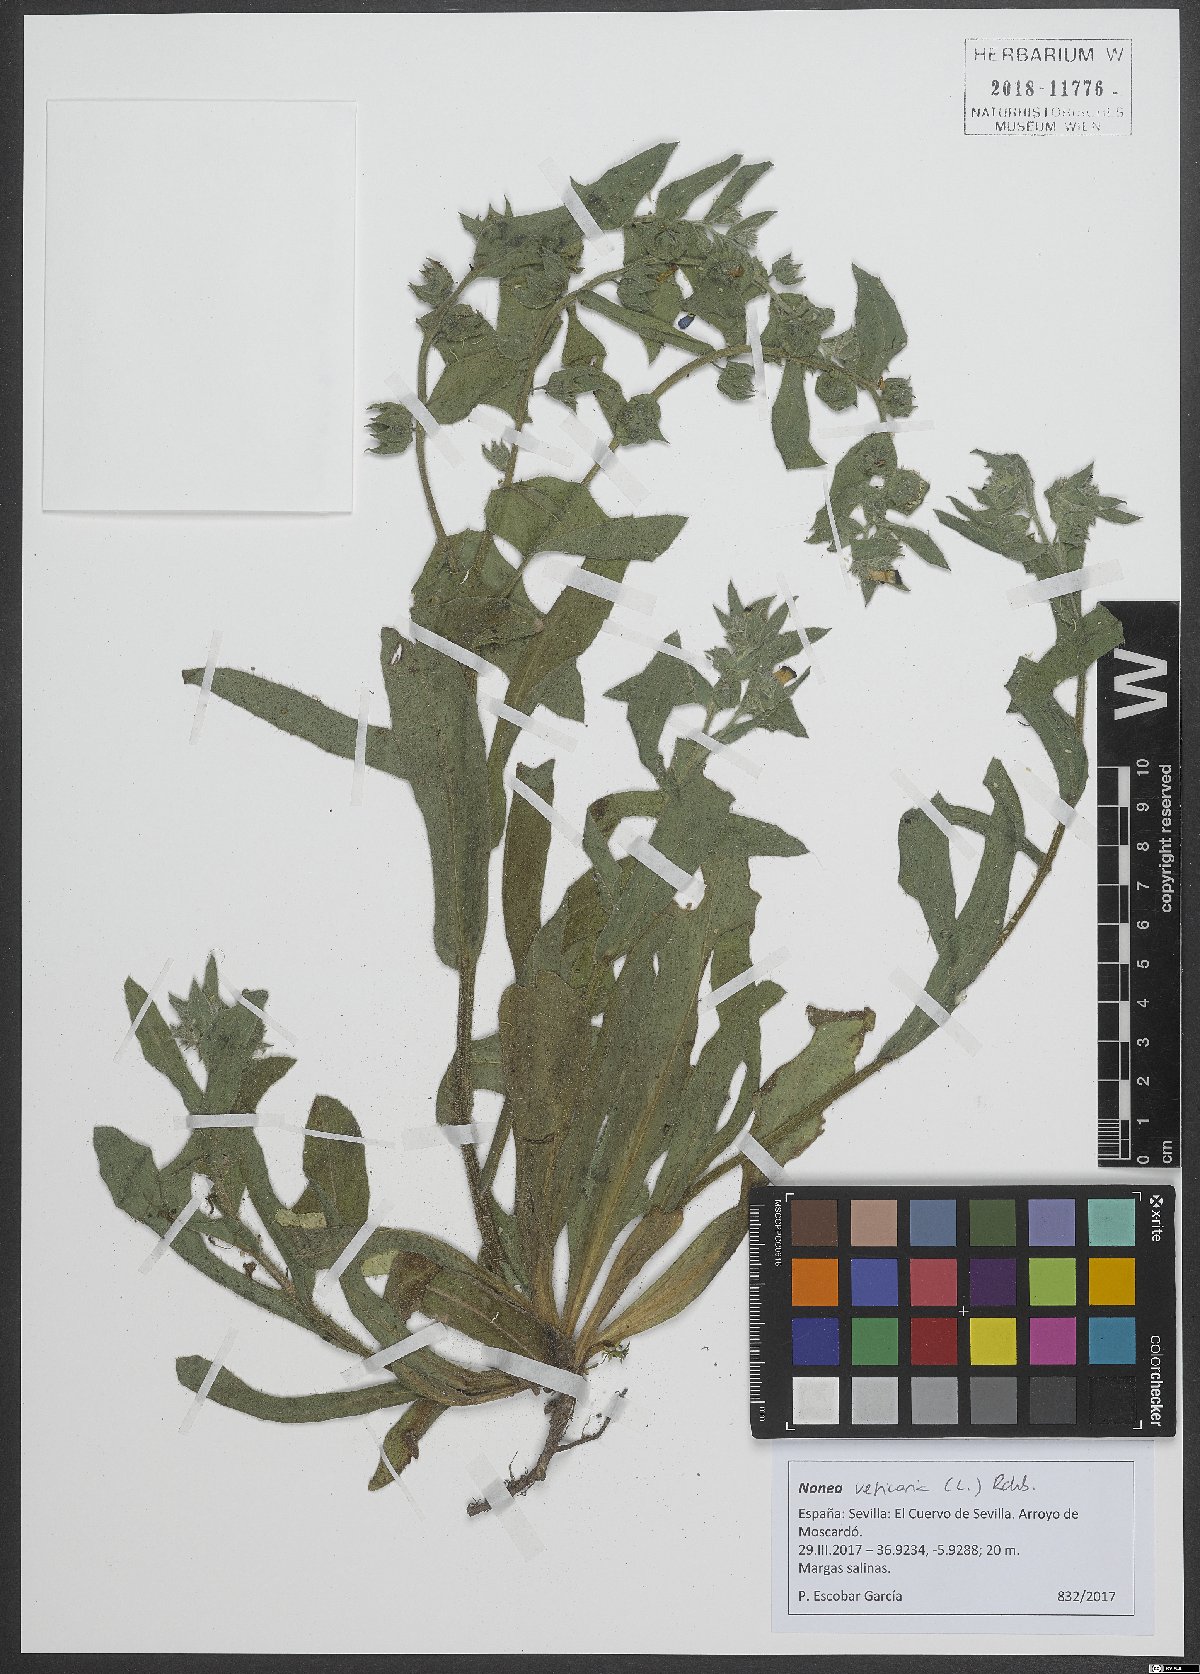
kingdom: Plantae
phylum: Tracheophyta
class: Magnoliopsida
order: Boraginales
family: Boraginaceae
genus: Nonea
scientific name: Nonea vesicaria
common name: Red monkswort
